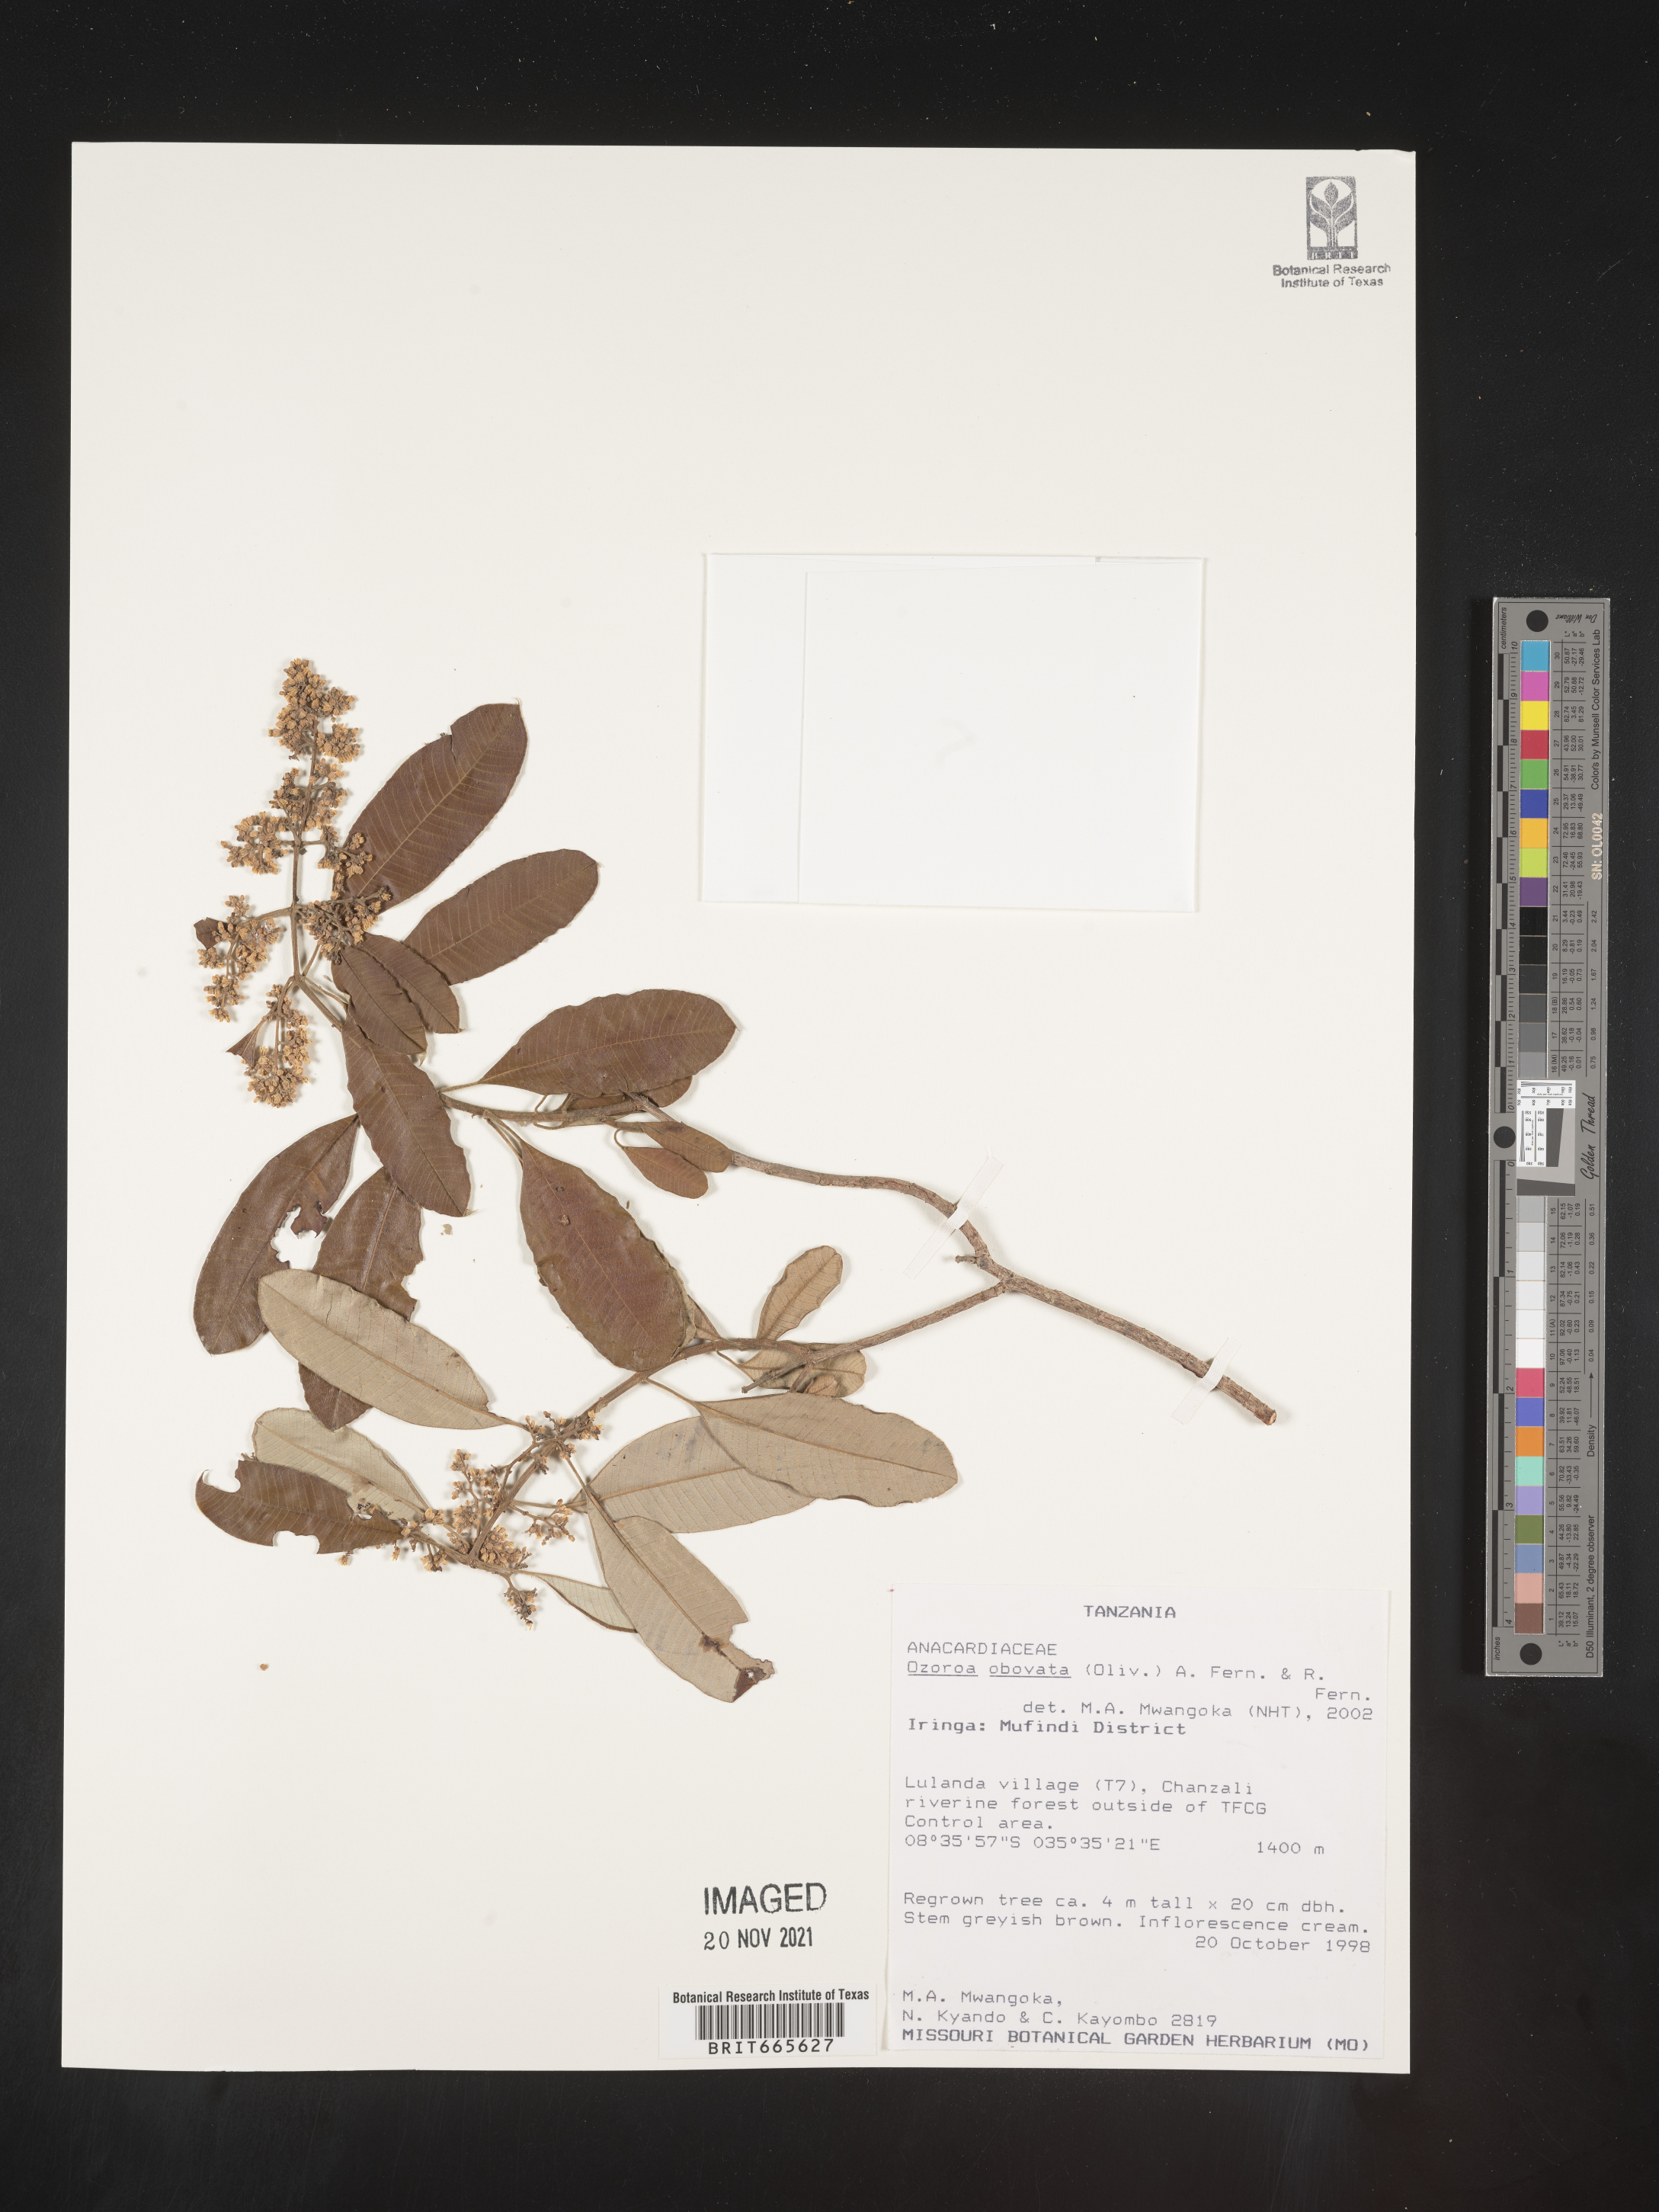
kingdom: Plantae
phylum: Tracheophyta
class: Magnoliopsida
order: Sapindales
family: Anacardiaceae
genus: Ozoroa
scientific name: Ozoroa
